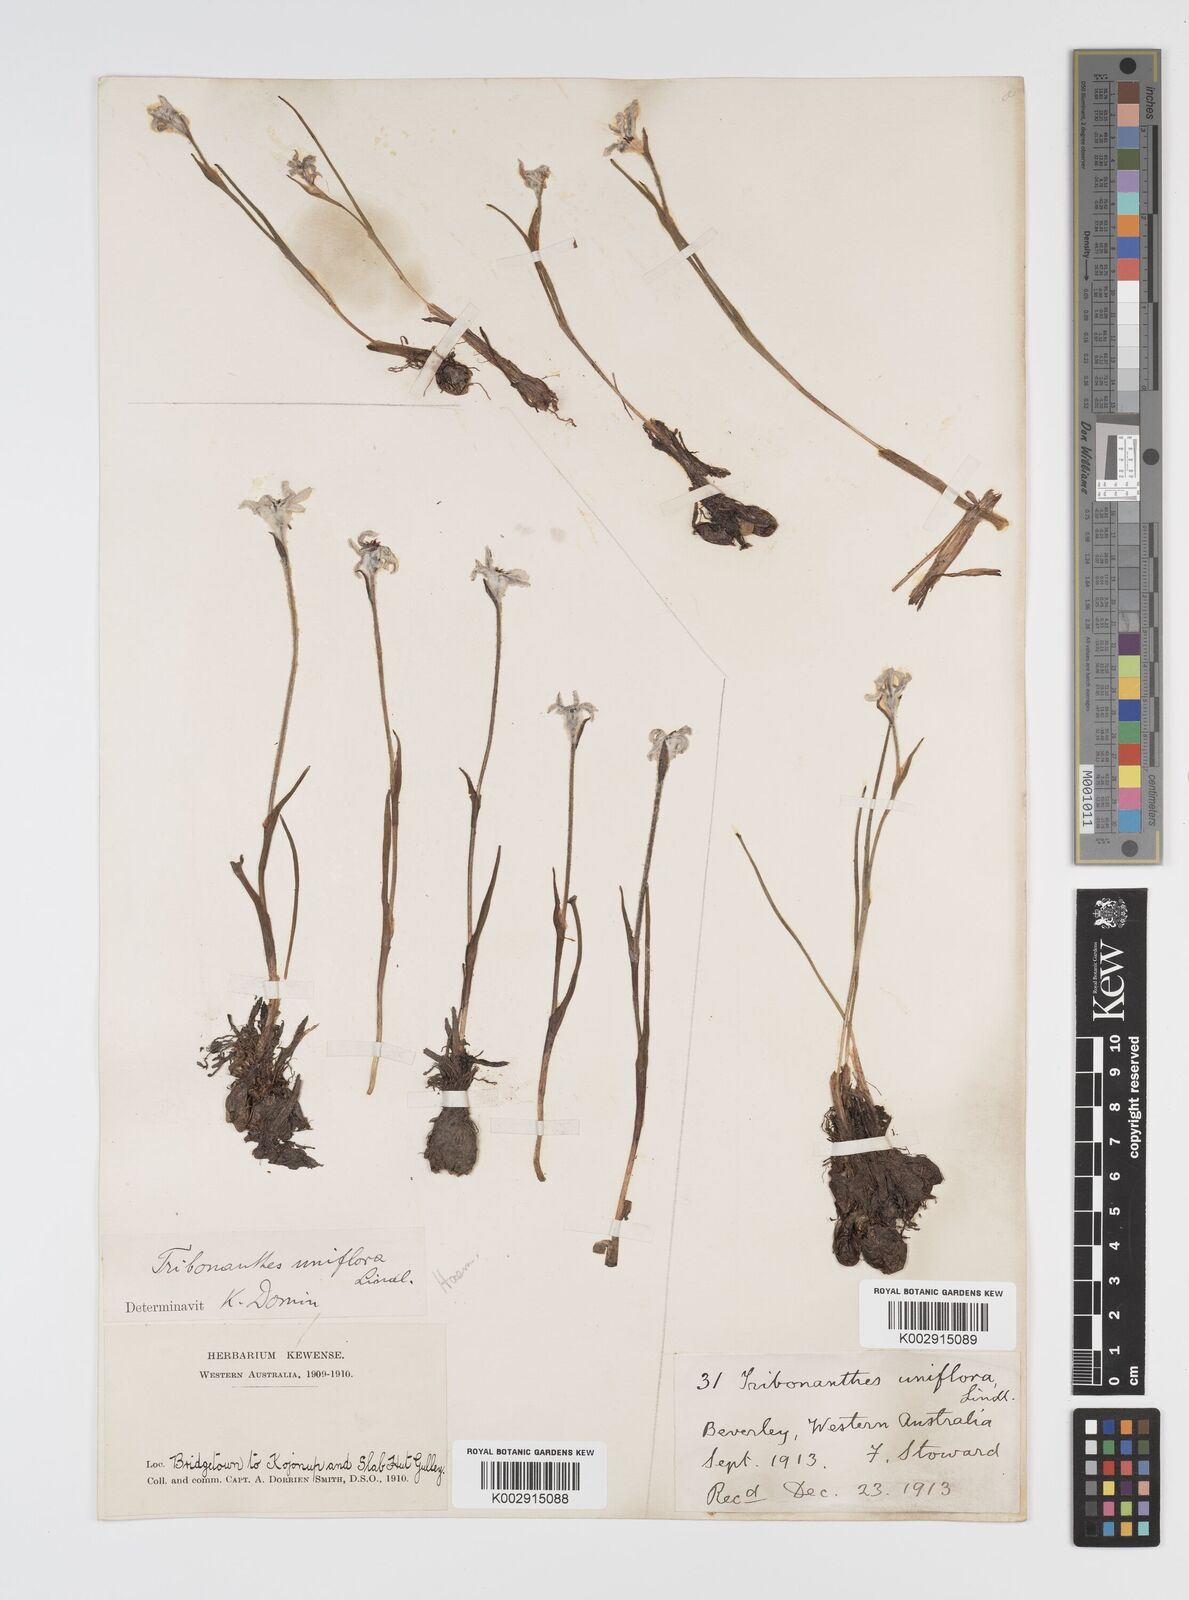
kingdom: Plantae
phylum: Tracheophyta
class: Liliopsida
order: Commelinales
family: Haemodoraceae
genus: Tribonanthes
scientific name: Tribonanthes uniflora
